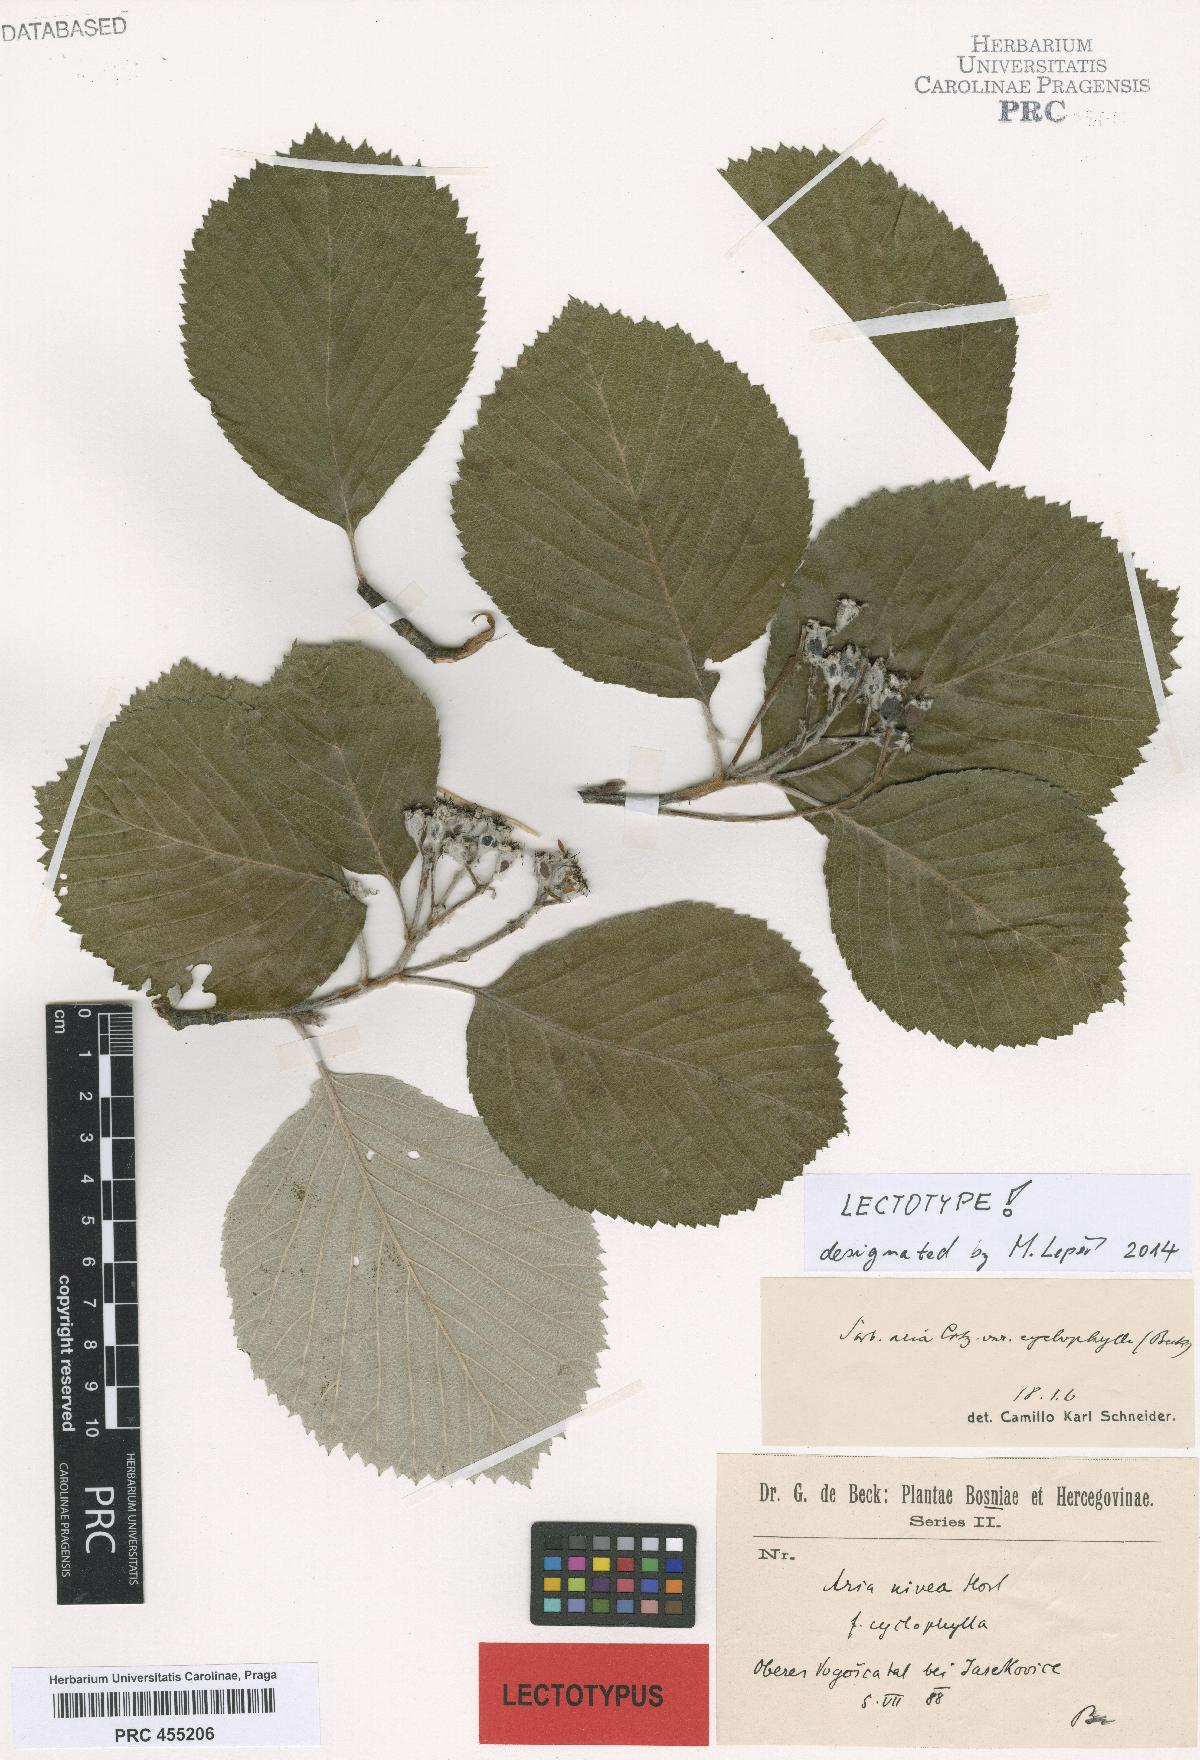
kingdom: Plantae
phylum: Tracheophyta
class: Magnoliopsida
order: Rosales
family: Rosaceae
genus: Aria
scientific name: Aria edulis
